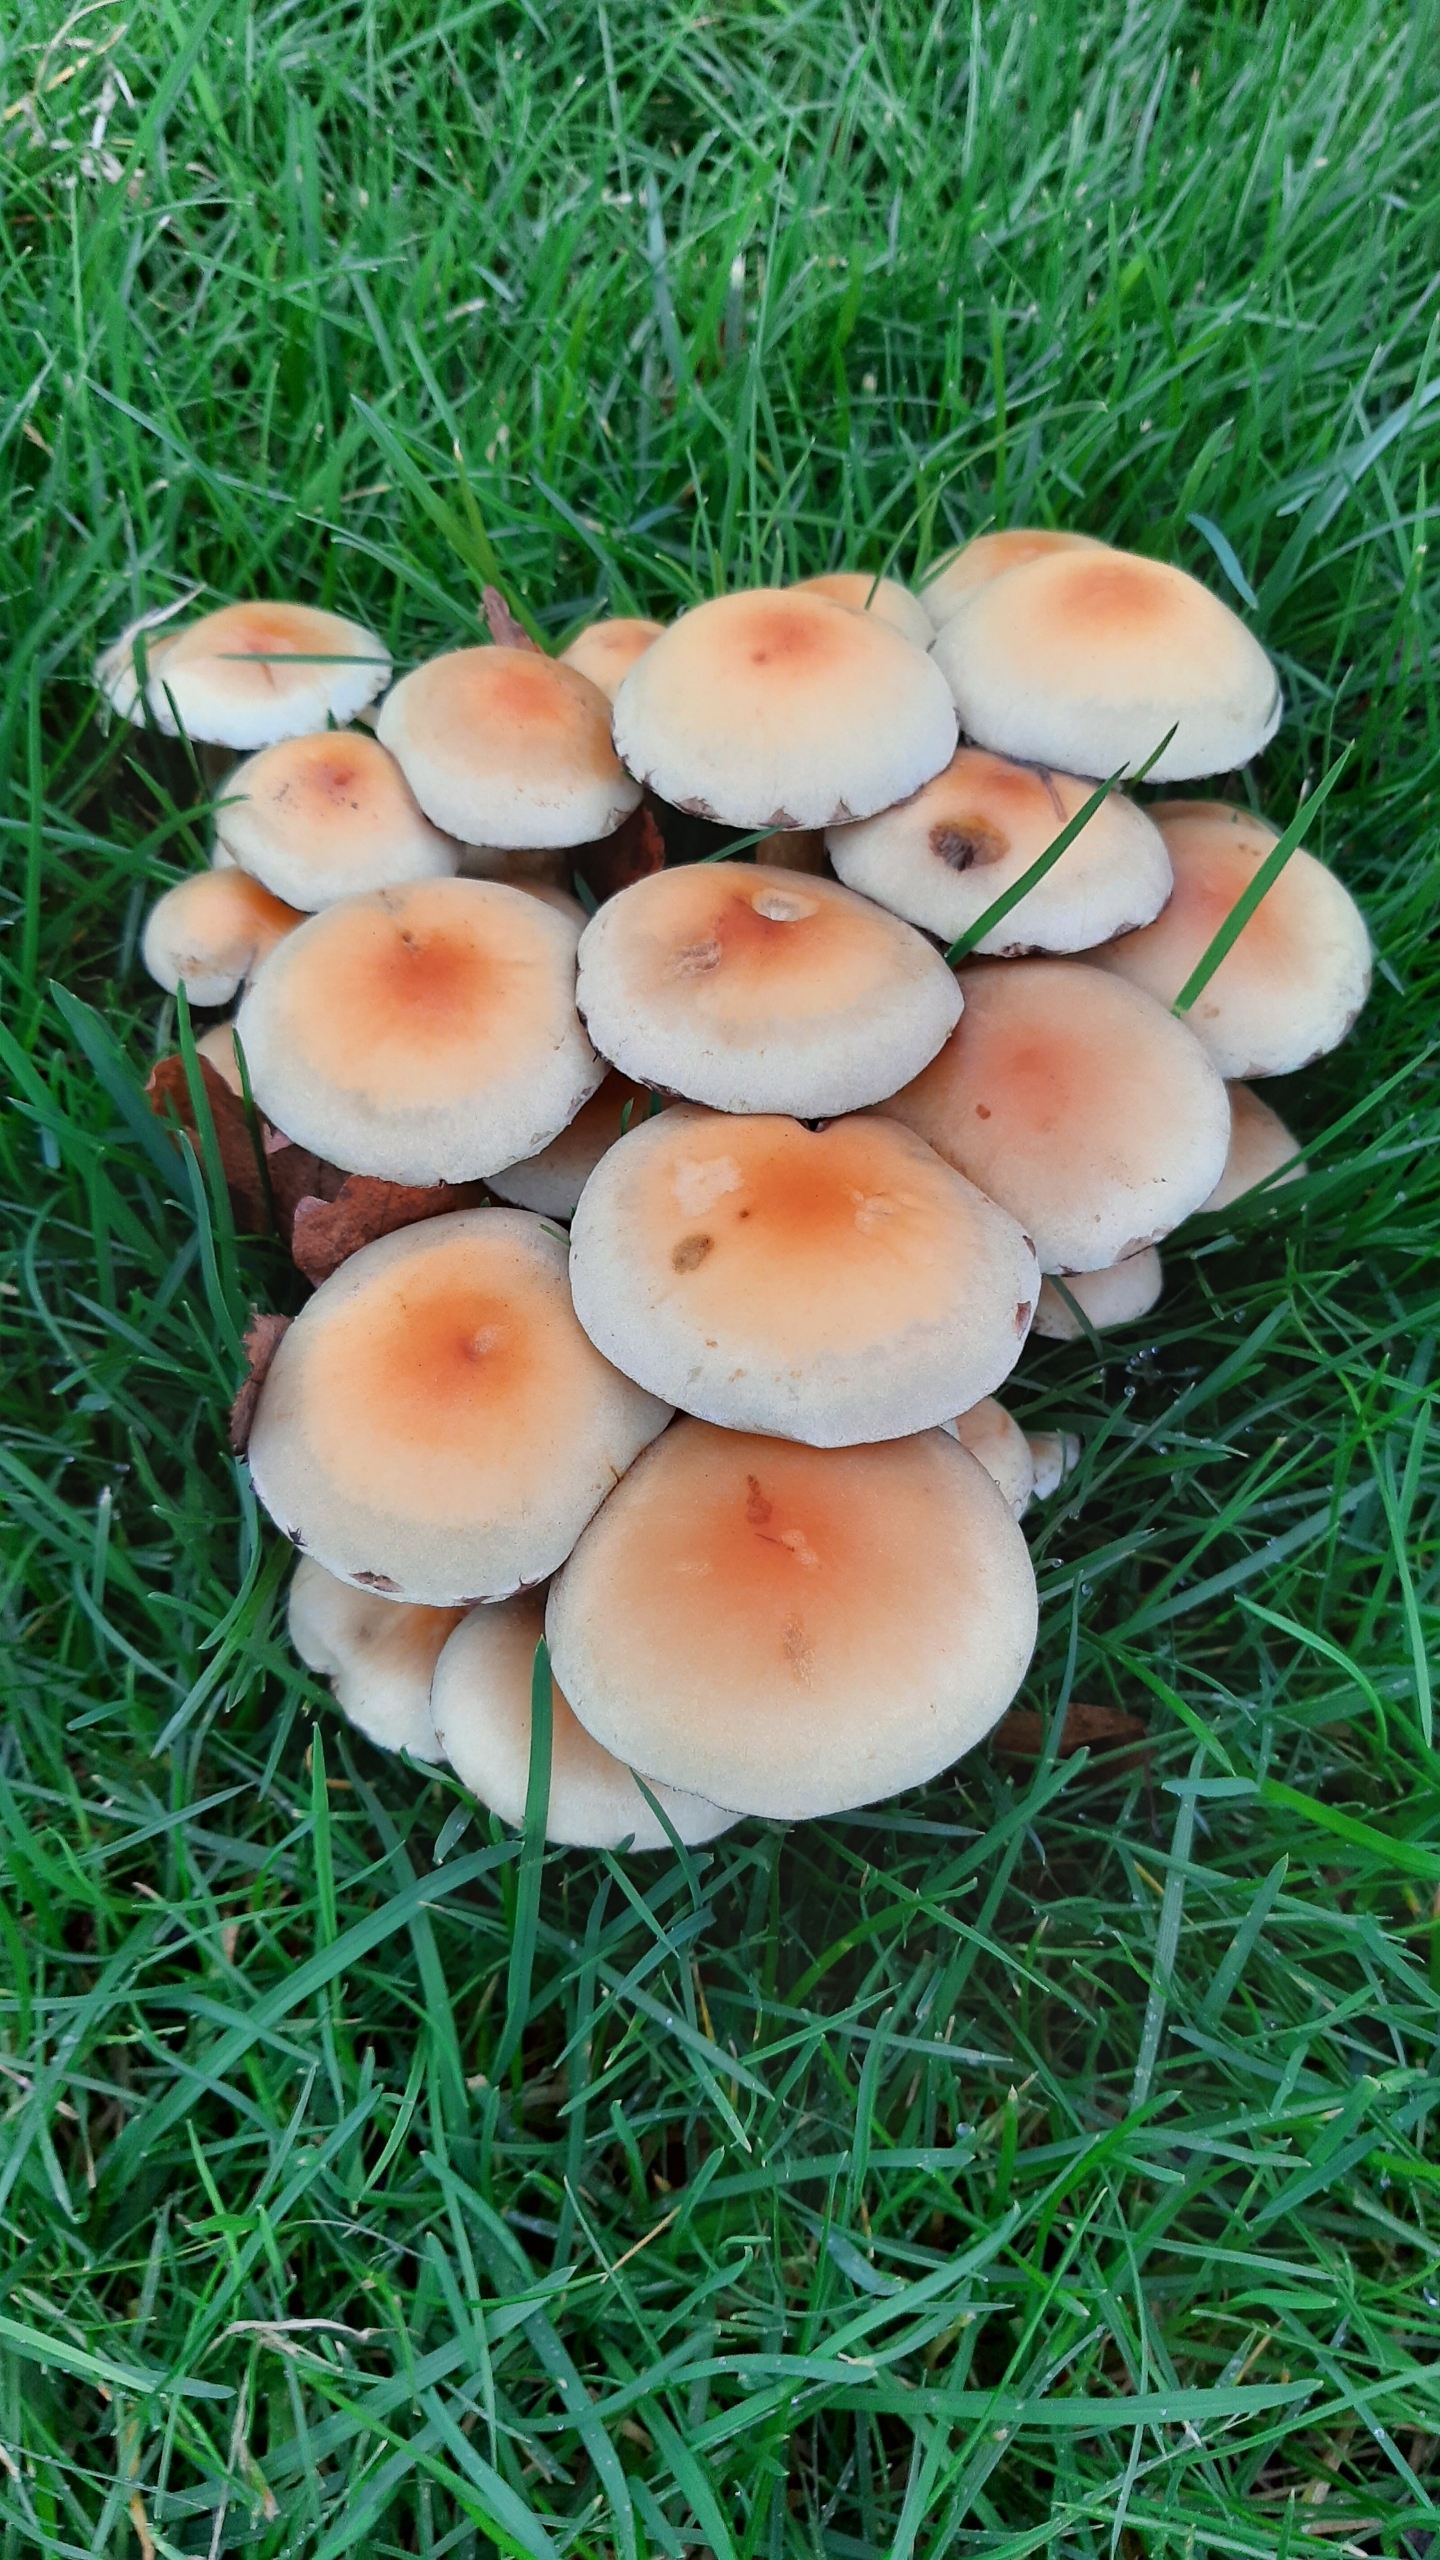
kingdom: Fungi
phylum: Basidiomycota
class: Agaricomycetes
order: Agaricales
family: Strophariaceae
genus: Hypholoma
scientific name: Hypholoma fasciculare
